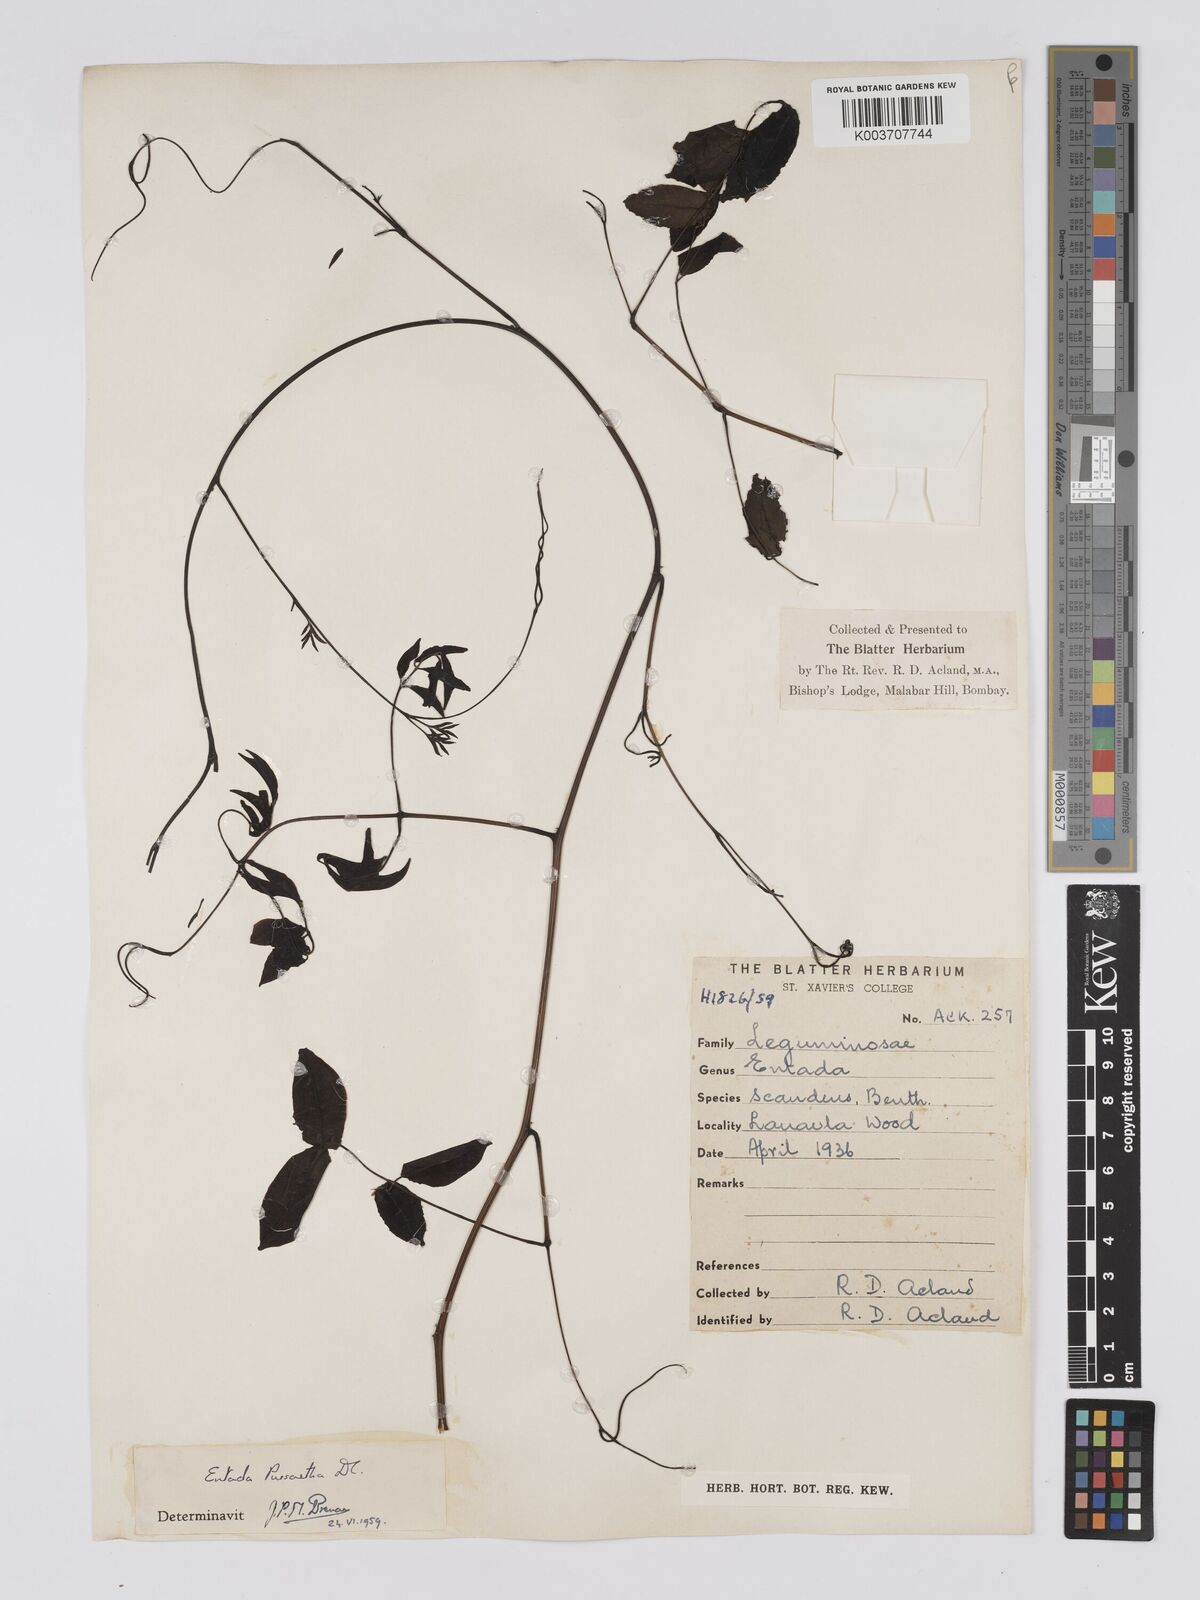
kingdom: Plantae
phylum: Tracheophyta
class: Magnoliopsida
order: Fabales
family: Fabaceae
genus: Entada
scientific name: Entada phaseoloides
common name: Matchbox-bean
